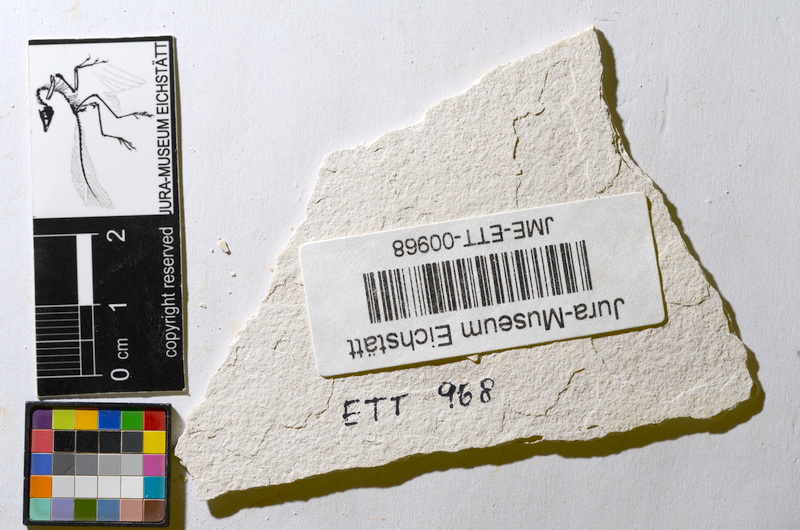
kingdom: Animalia
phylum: Chordata
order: Salmoniformes
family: Orthogonikleithridae
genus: Orthogonikleithrus
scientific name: Orthogonikleithrus hoelli
